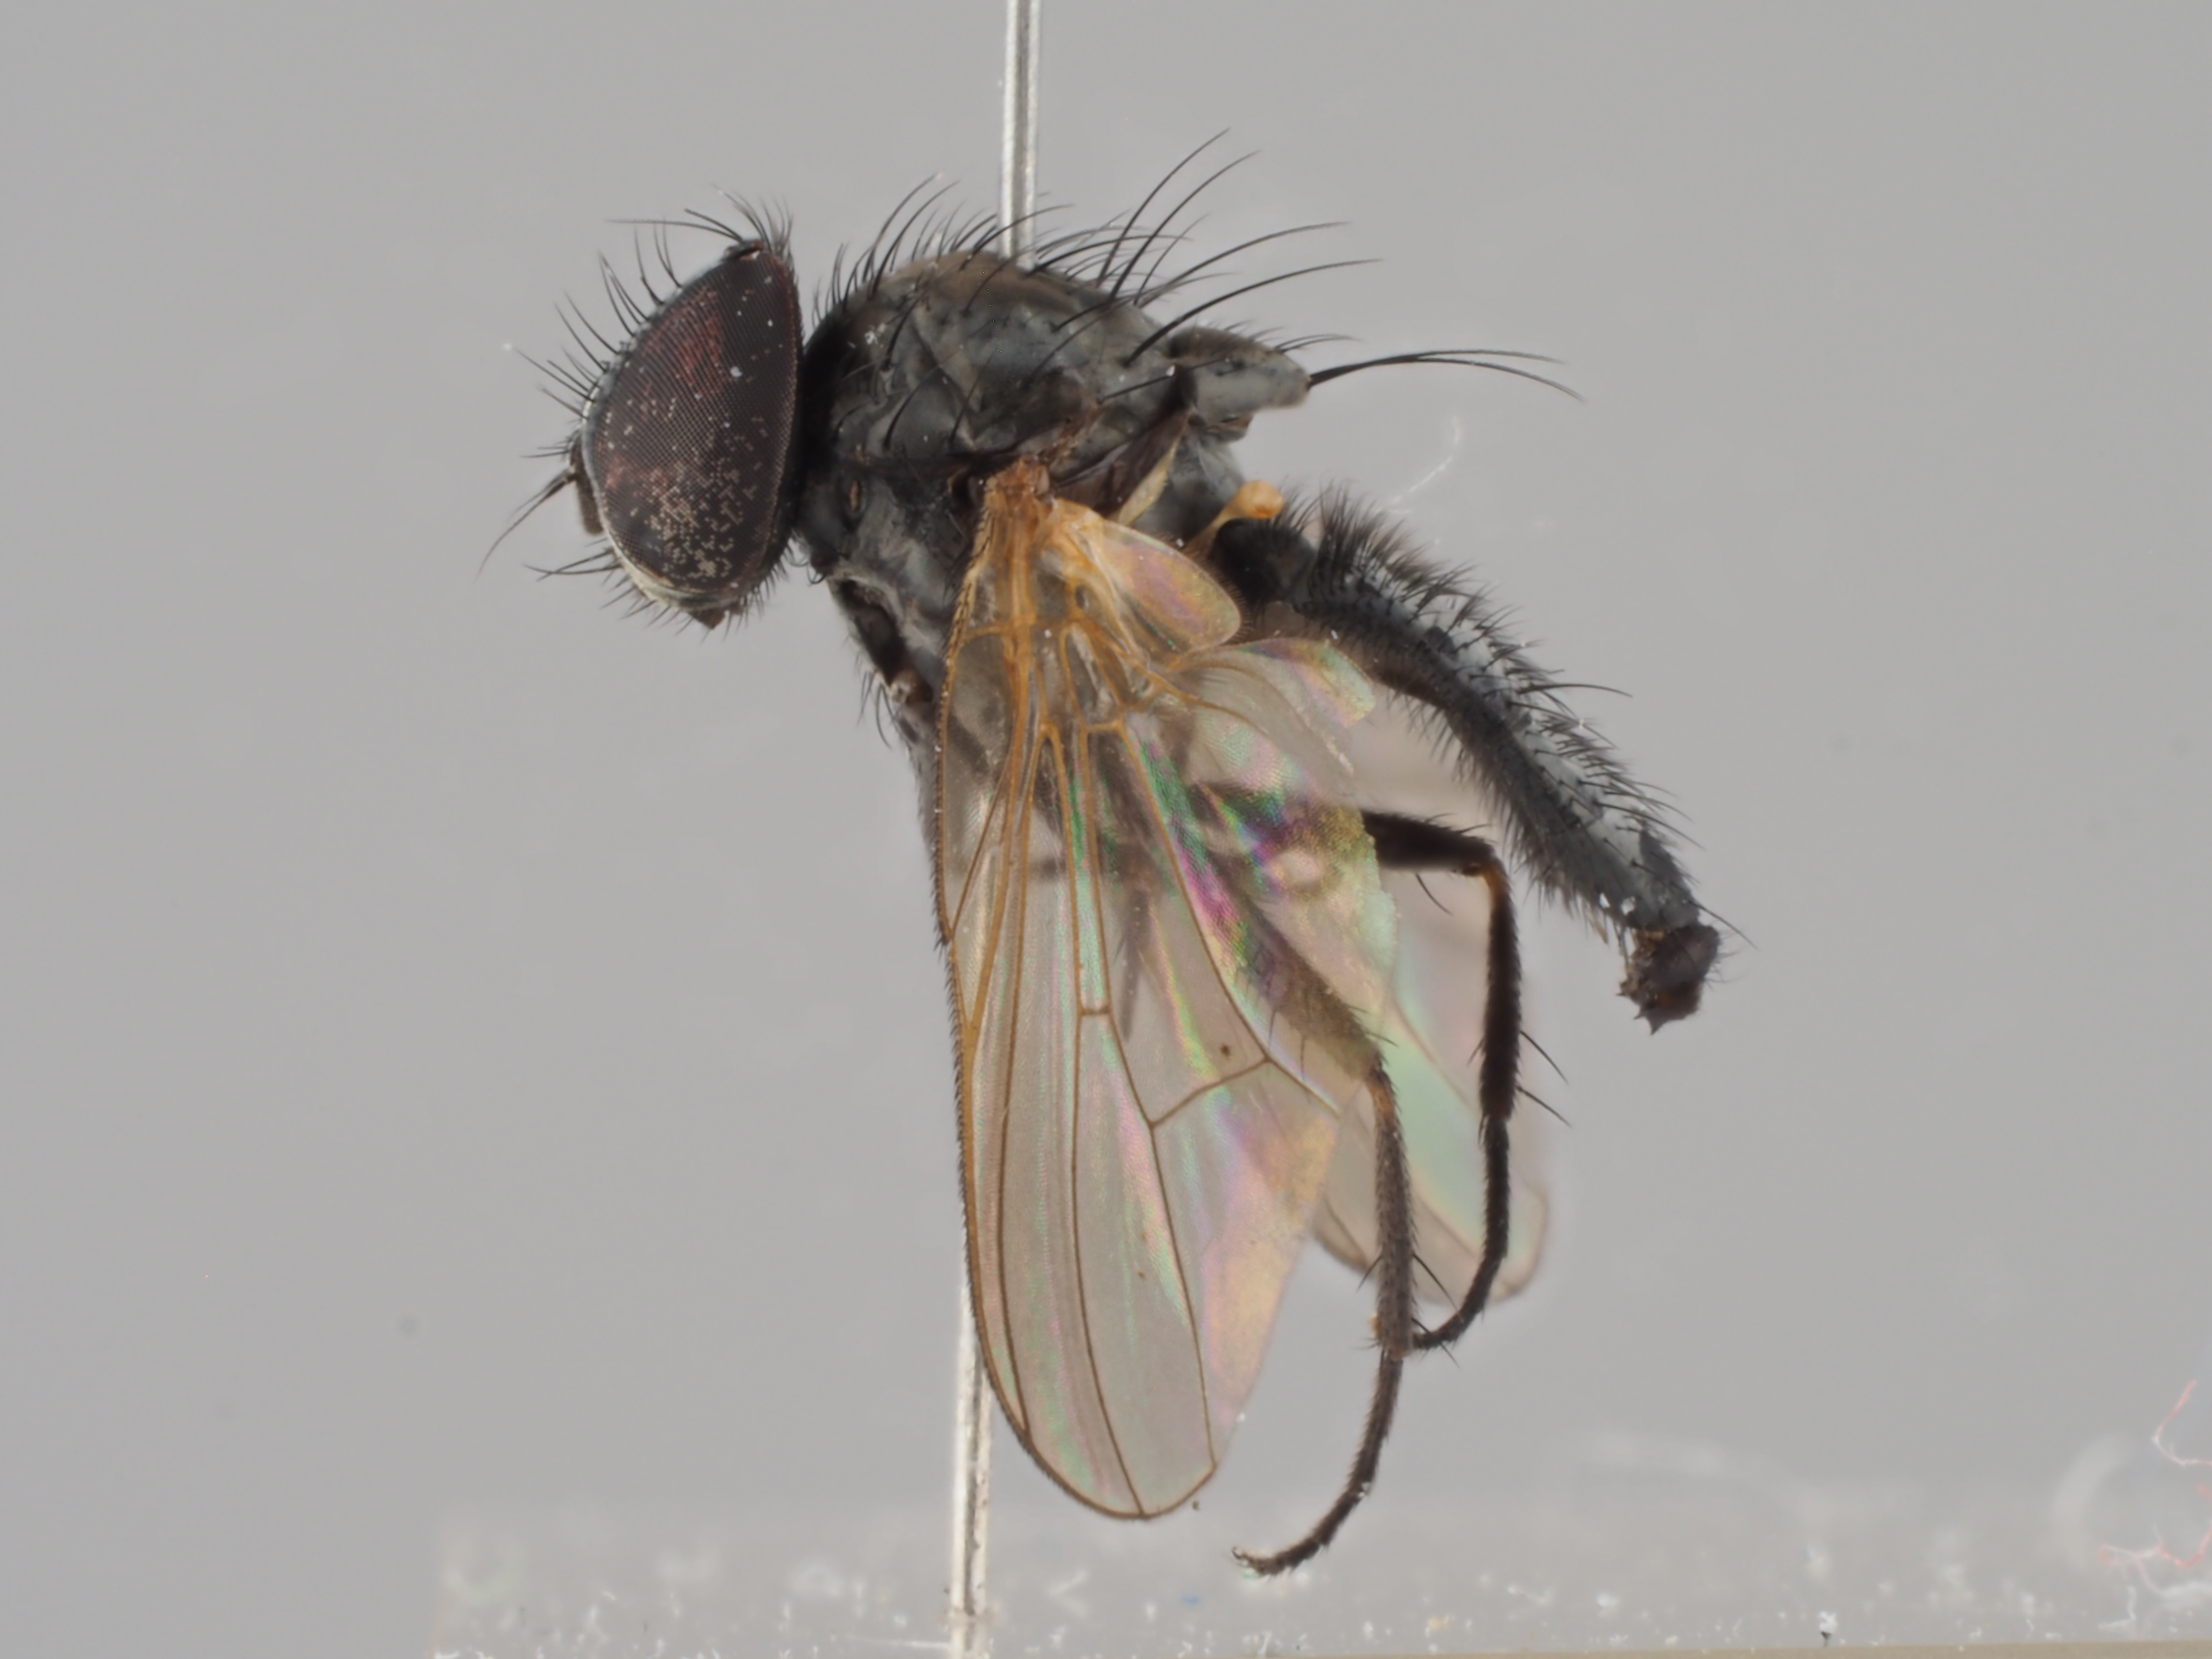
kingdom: Animalia
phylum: Arthropoda
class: Insecta
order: Diptera
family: Fanniidae
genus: Fannia
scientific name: Fannia similis
